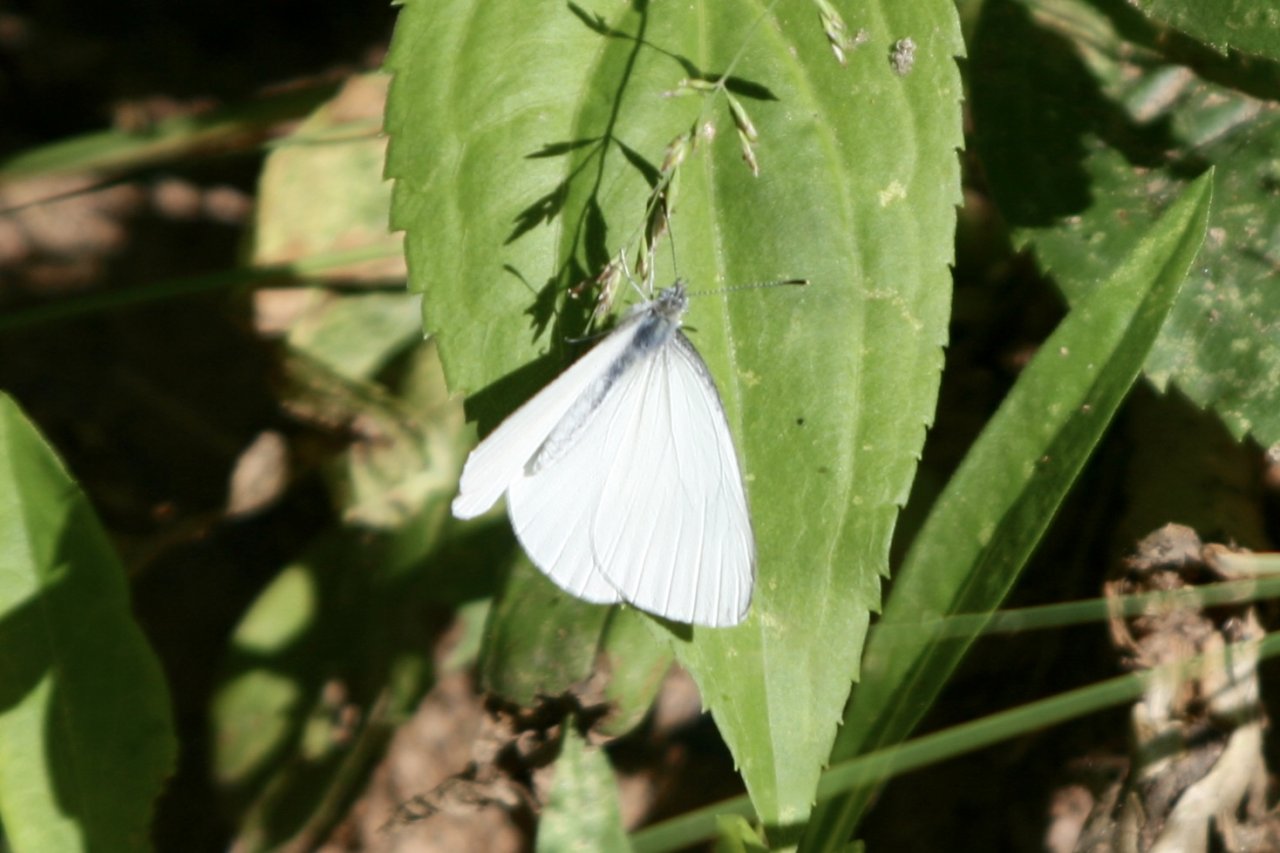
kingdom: Animalia
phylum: Arthropoda
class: Insecta
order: Lepidoptera
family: Pieridae
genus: Pieris
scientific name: Pieris oleracea
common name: Mustard White
